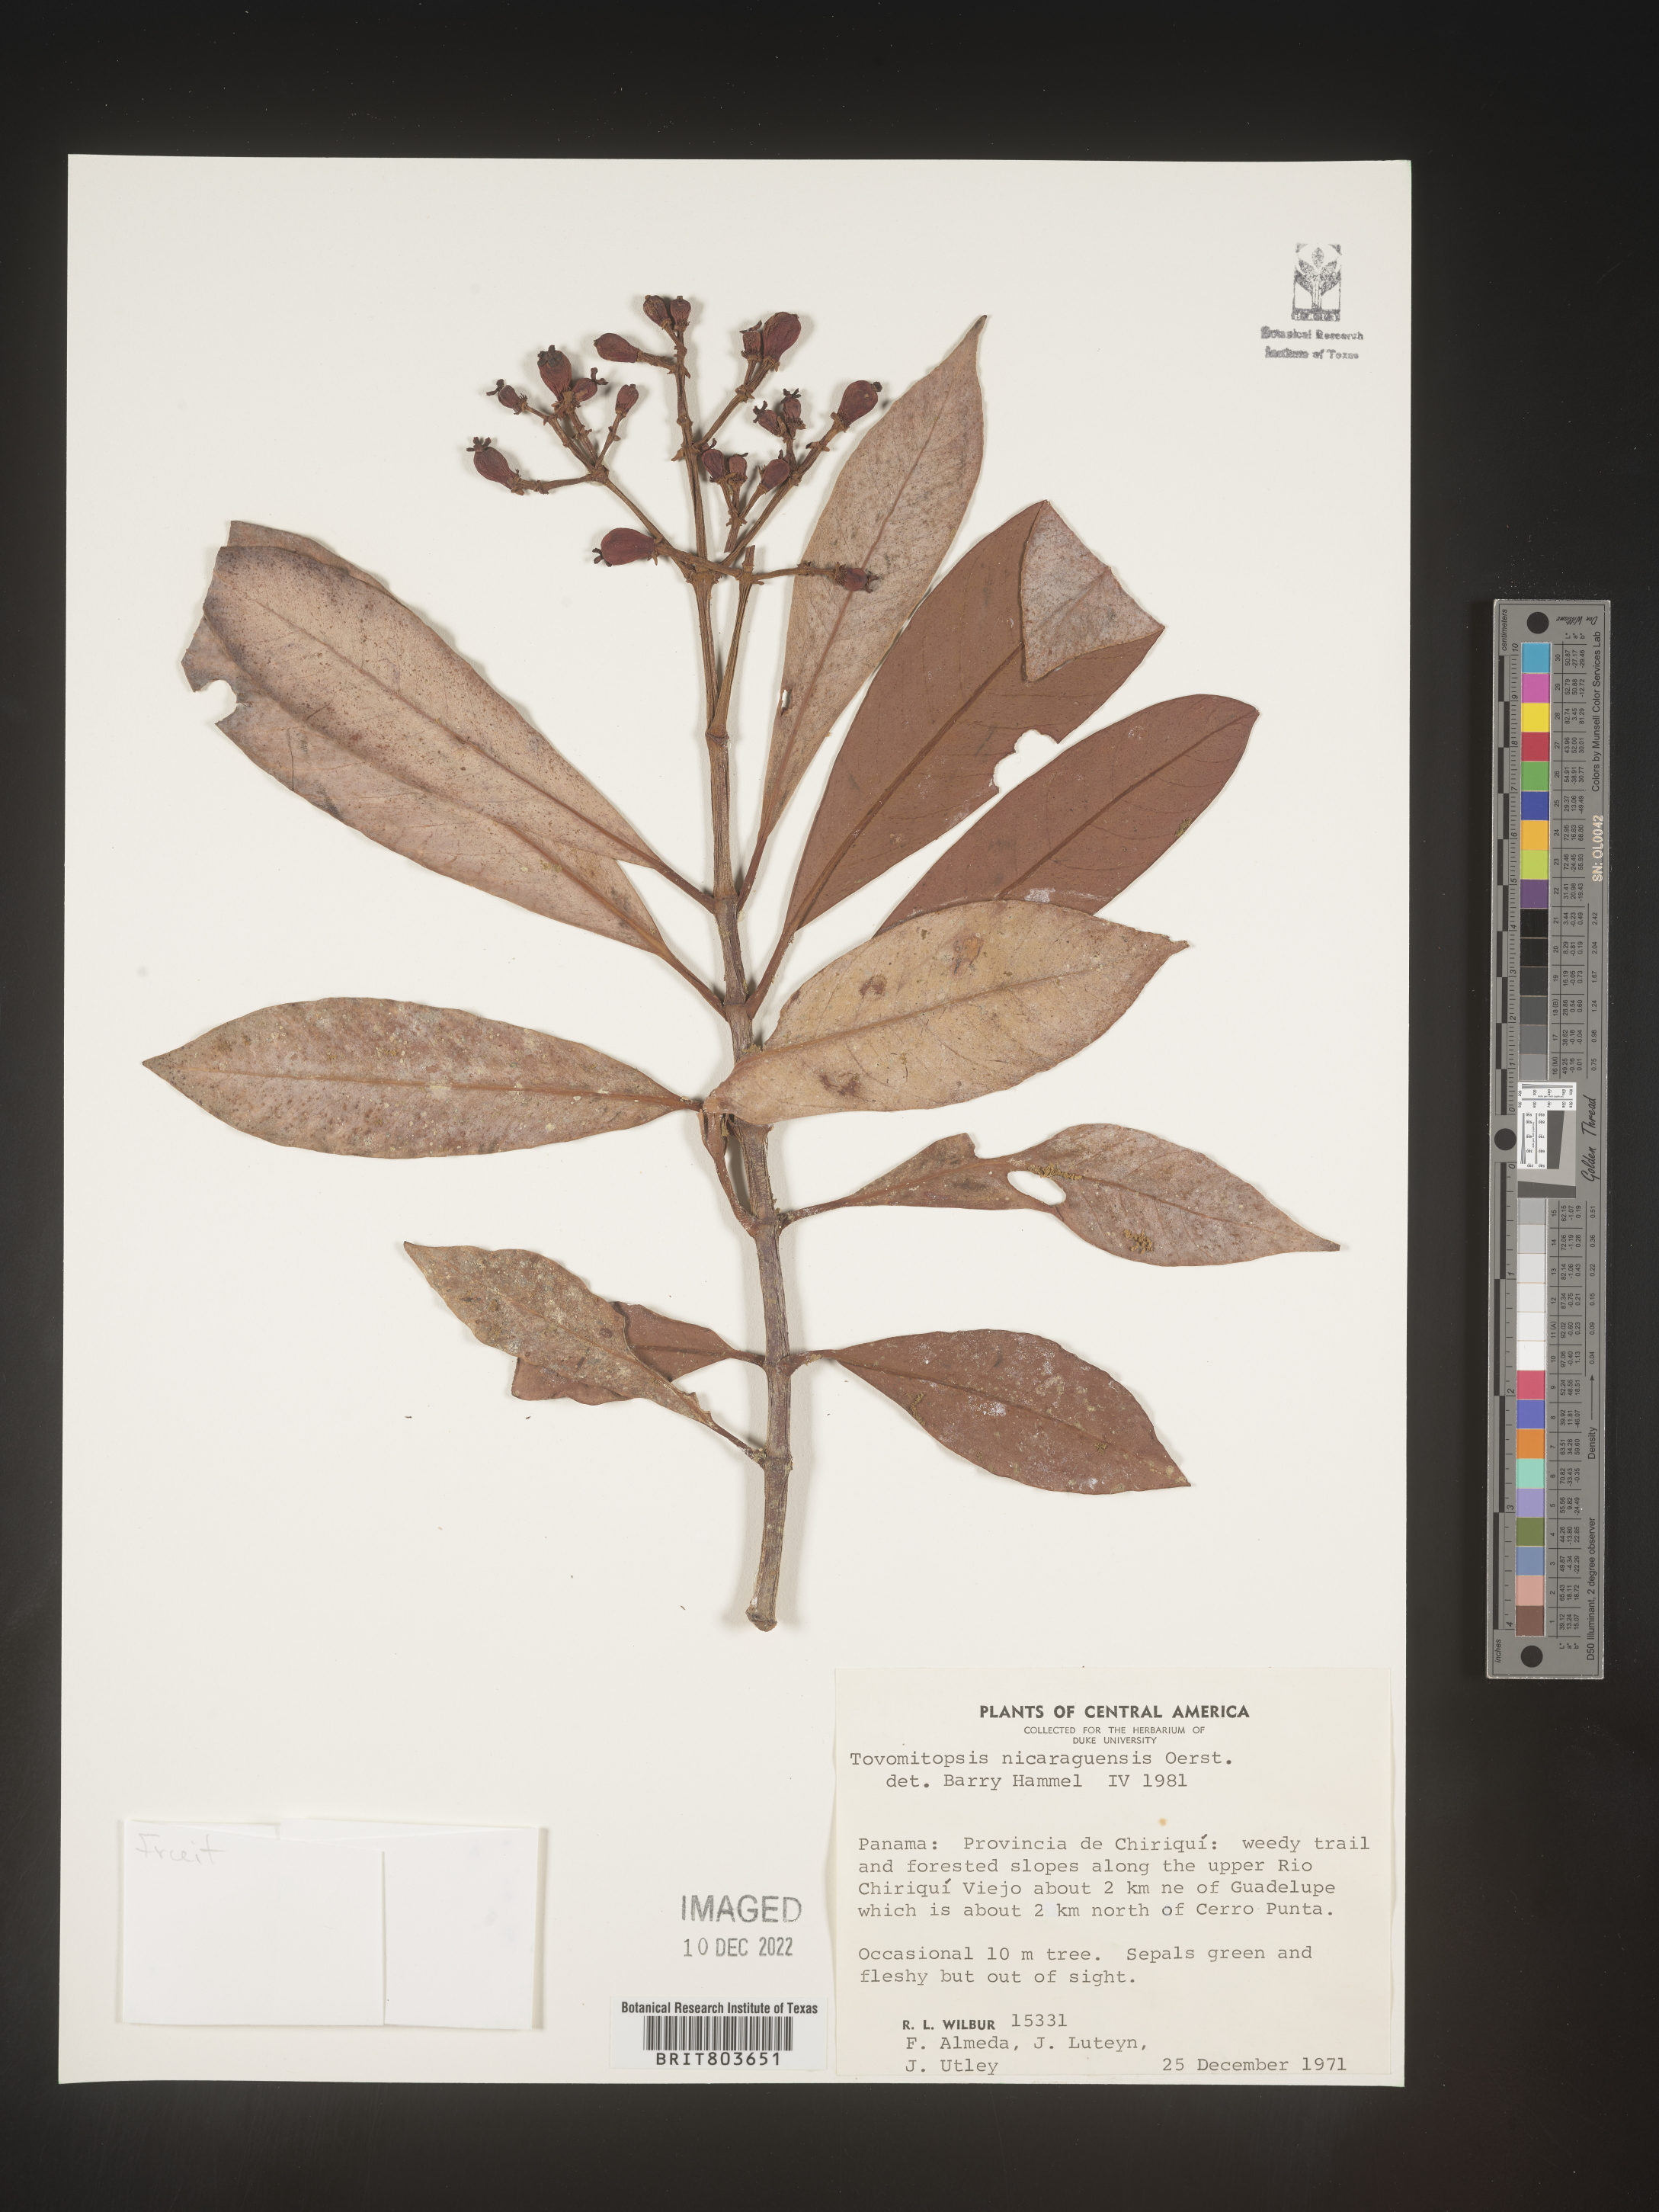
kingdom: Plantae
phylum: Tracheophyta
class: Magnoliopsida
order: Malpighiales
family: Clusiaceae
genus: Tovomitopsis
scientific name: Tovomitopsis
